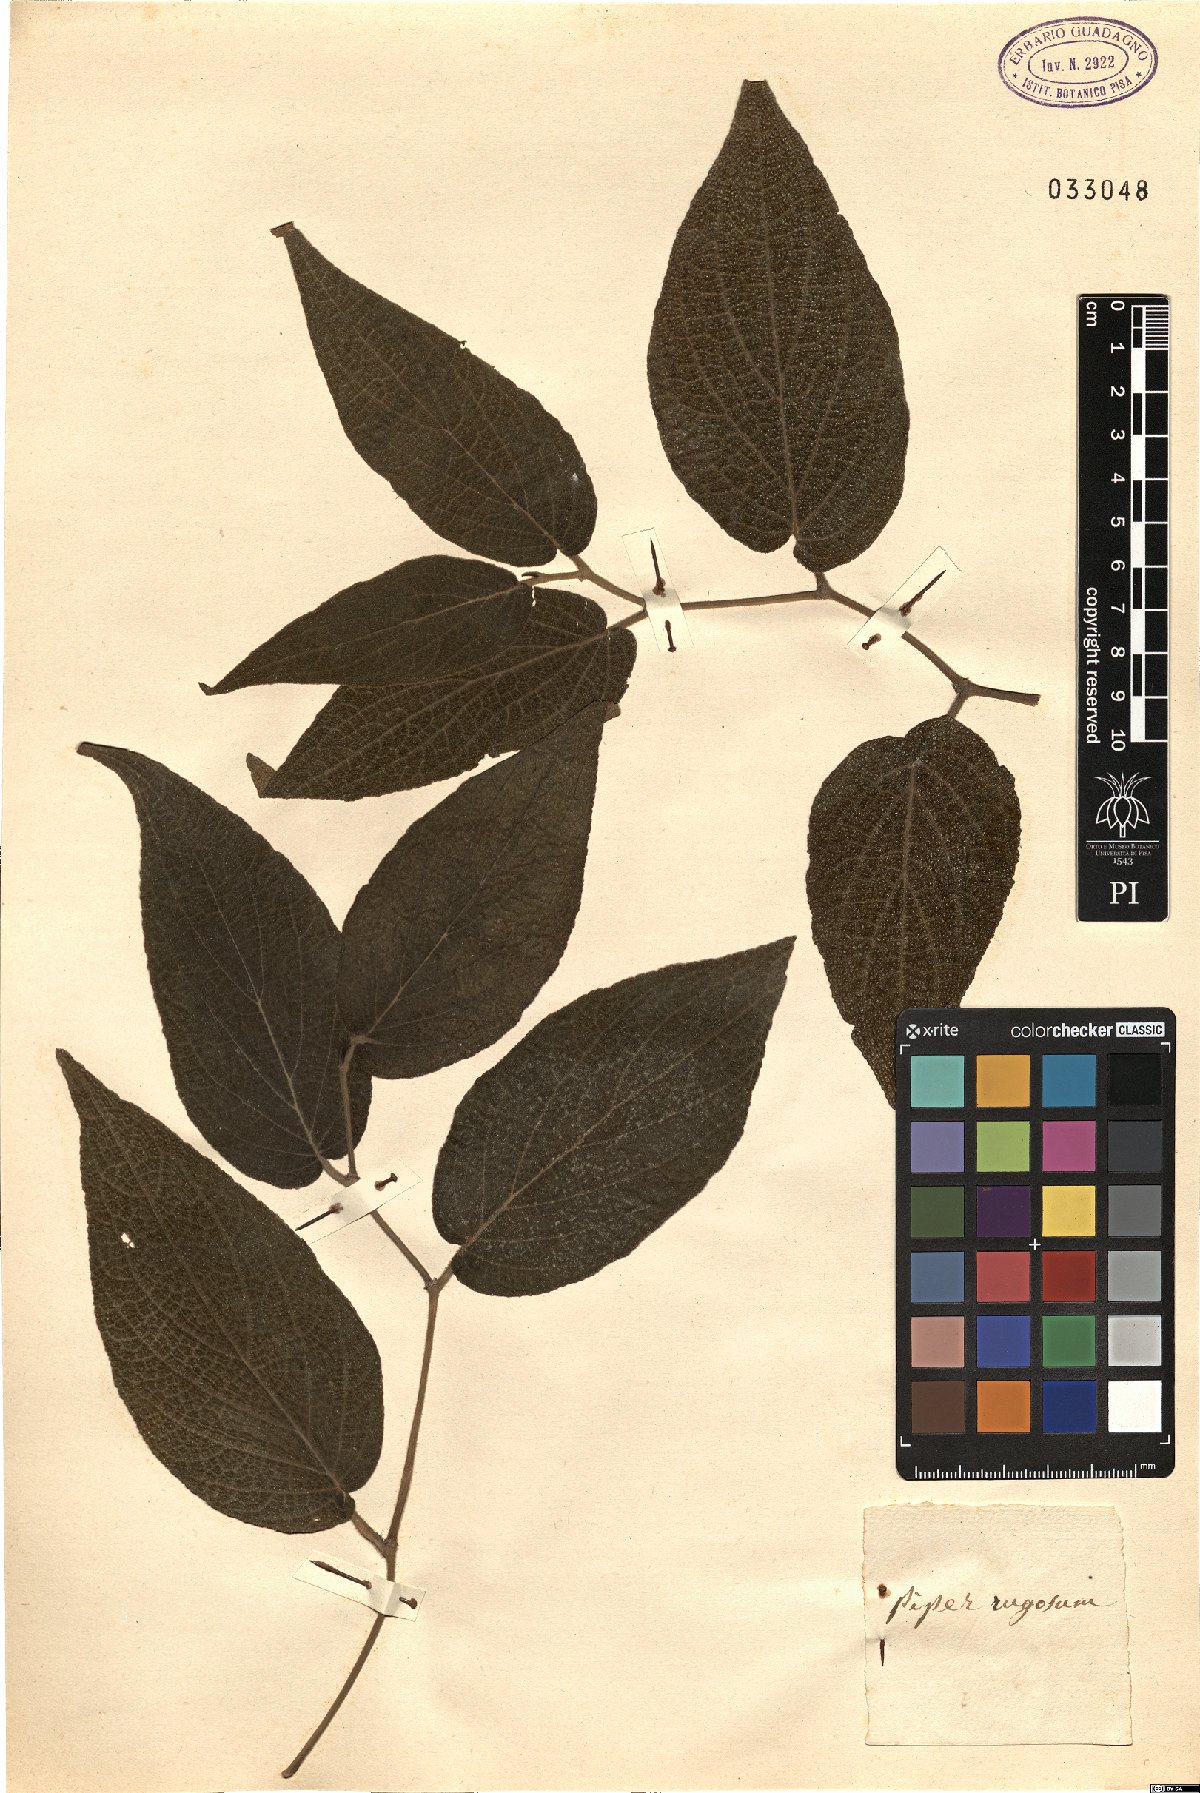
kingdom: Plantae
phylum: Tracheophyta
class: Magnoliopsida
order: Piperales
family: Piperaceae
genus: Piper
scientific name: Piper rugosum
